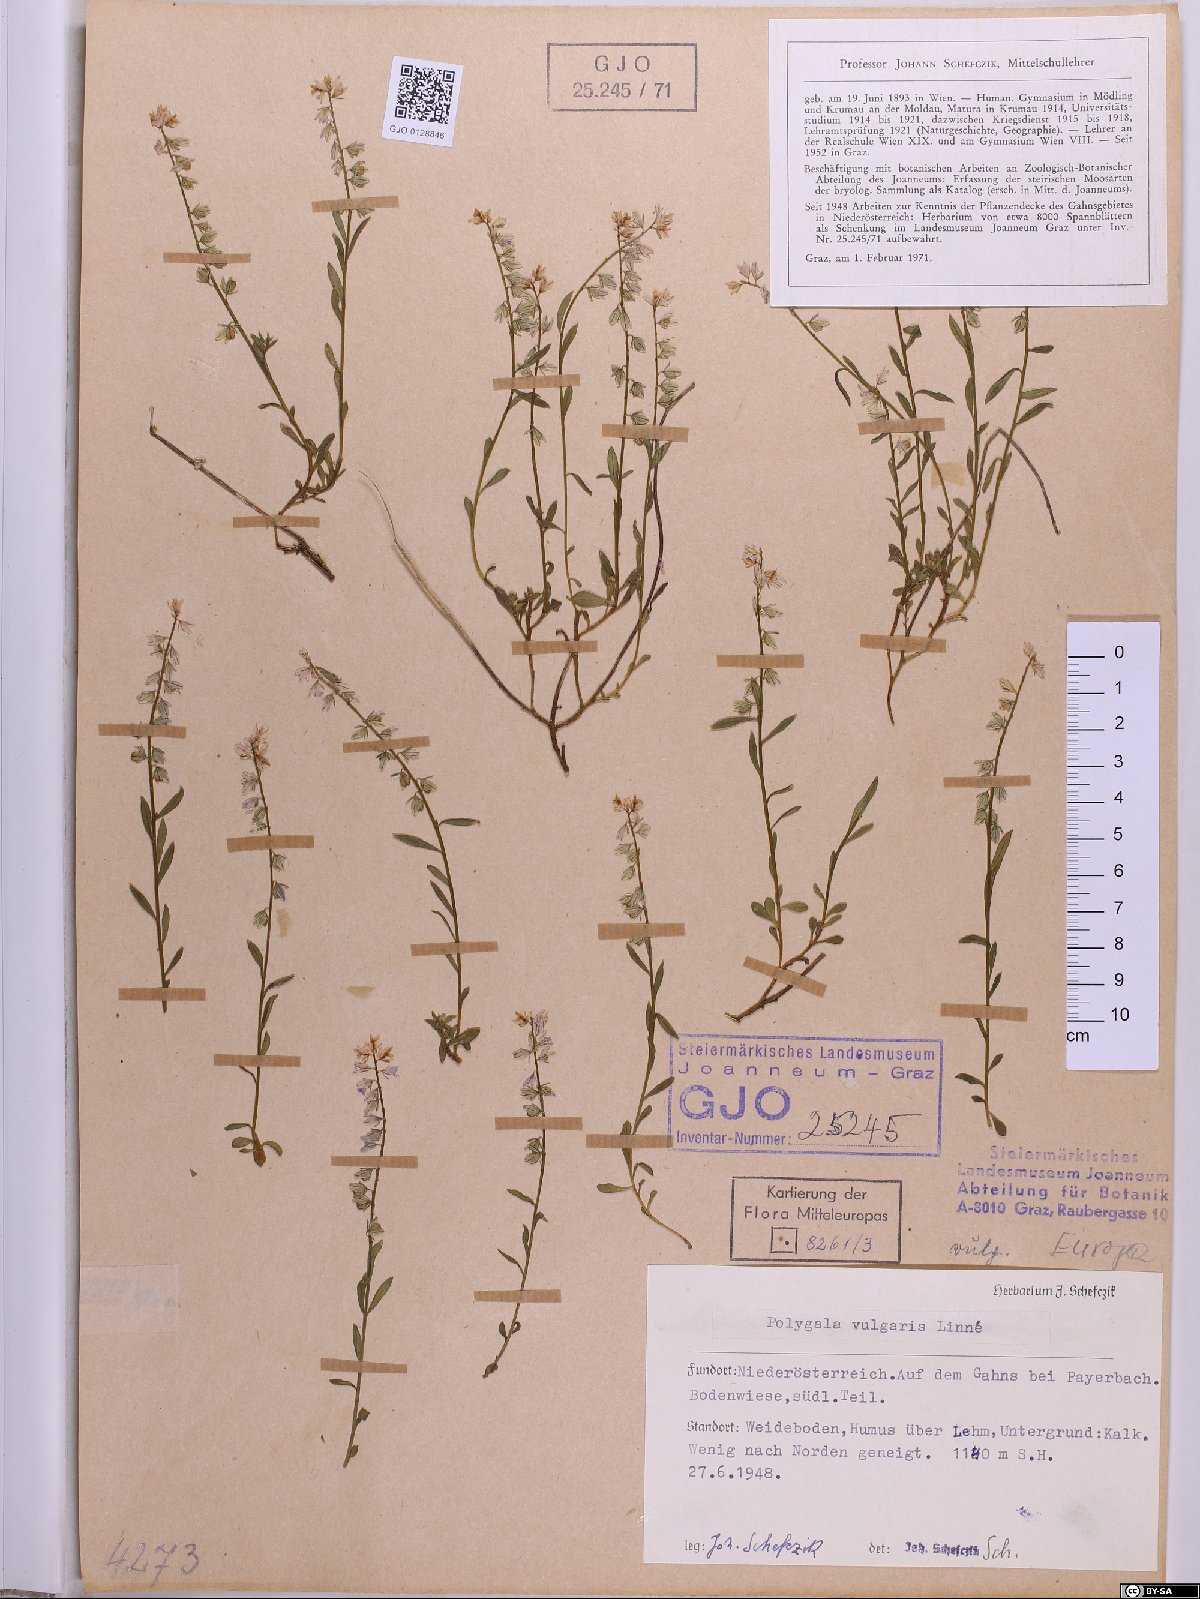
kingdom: Plantae
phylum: Tracheophyta
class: Magnoliopsida
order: Fabales
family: Polygalaceae
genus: Polygala
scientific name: Polygala vulgaris
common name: Common milkwort
